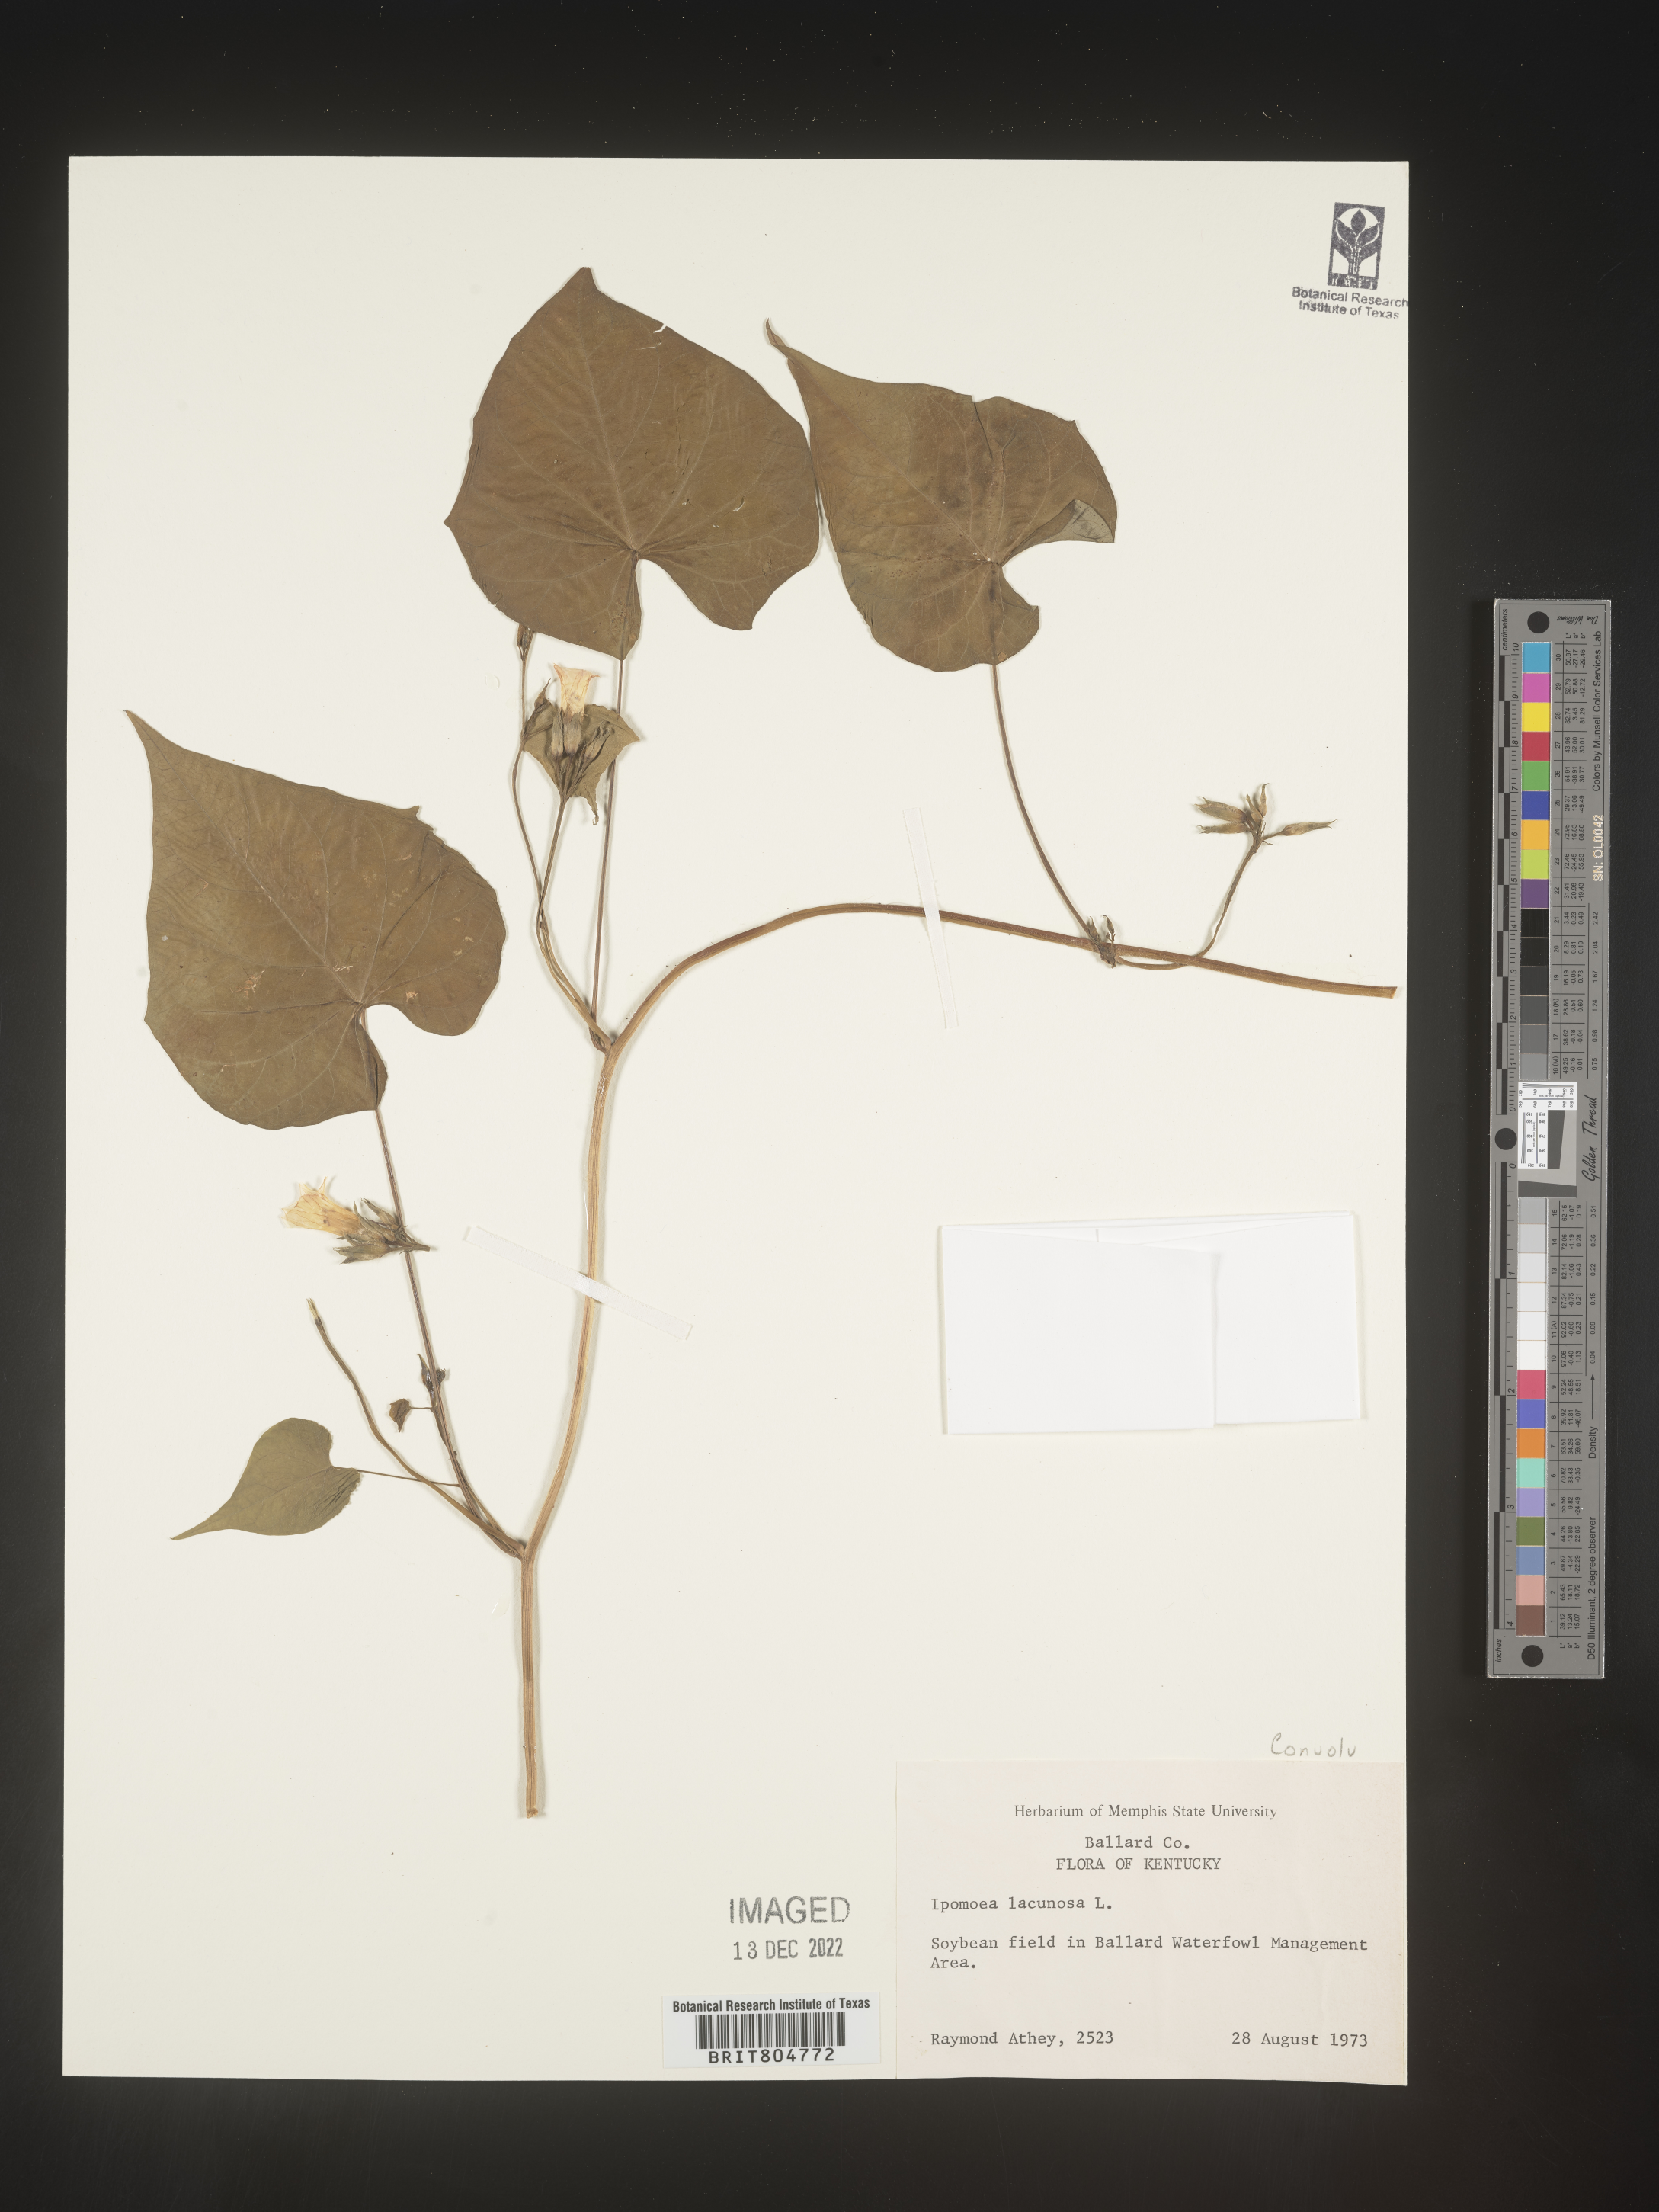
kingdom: Plantae
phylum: Tracheophyta
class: Magnoliopsida
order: Solanales
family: Convolvulaceae
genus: Ipomoea
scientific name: Ipomoea lacunosa
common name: White morning-glory
